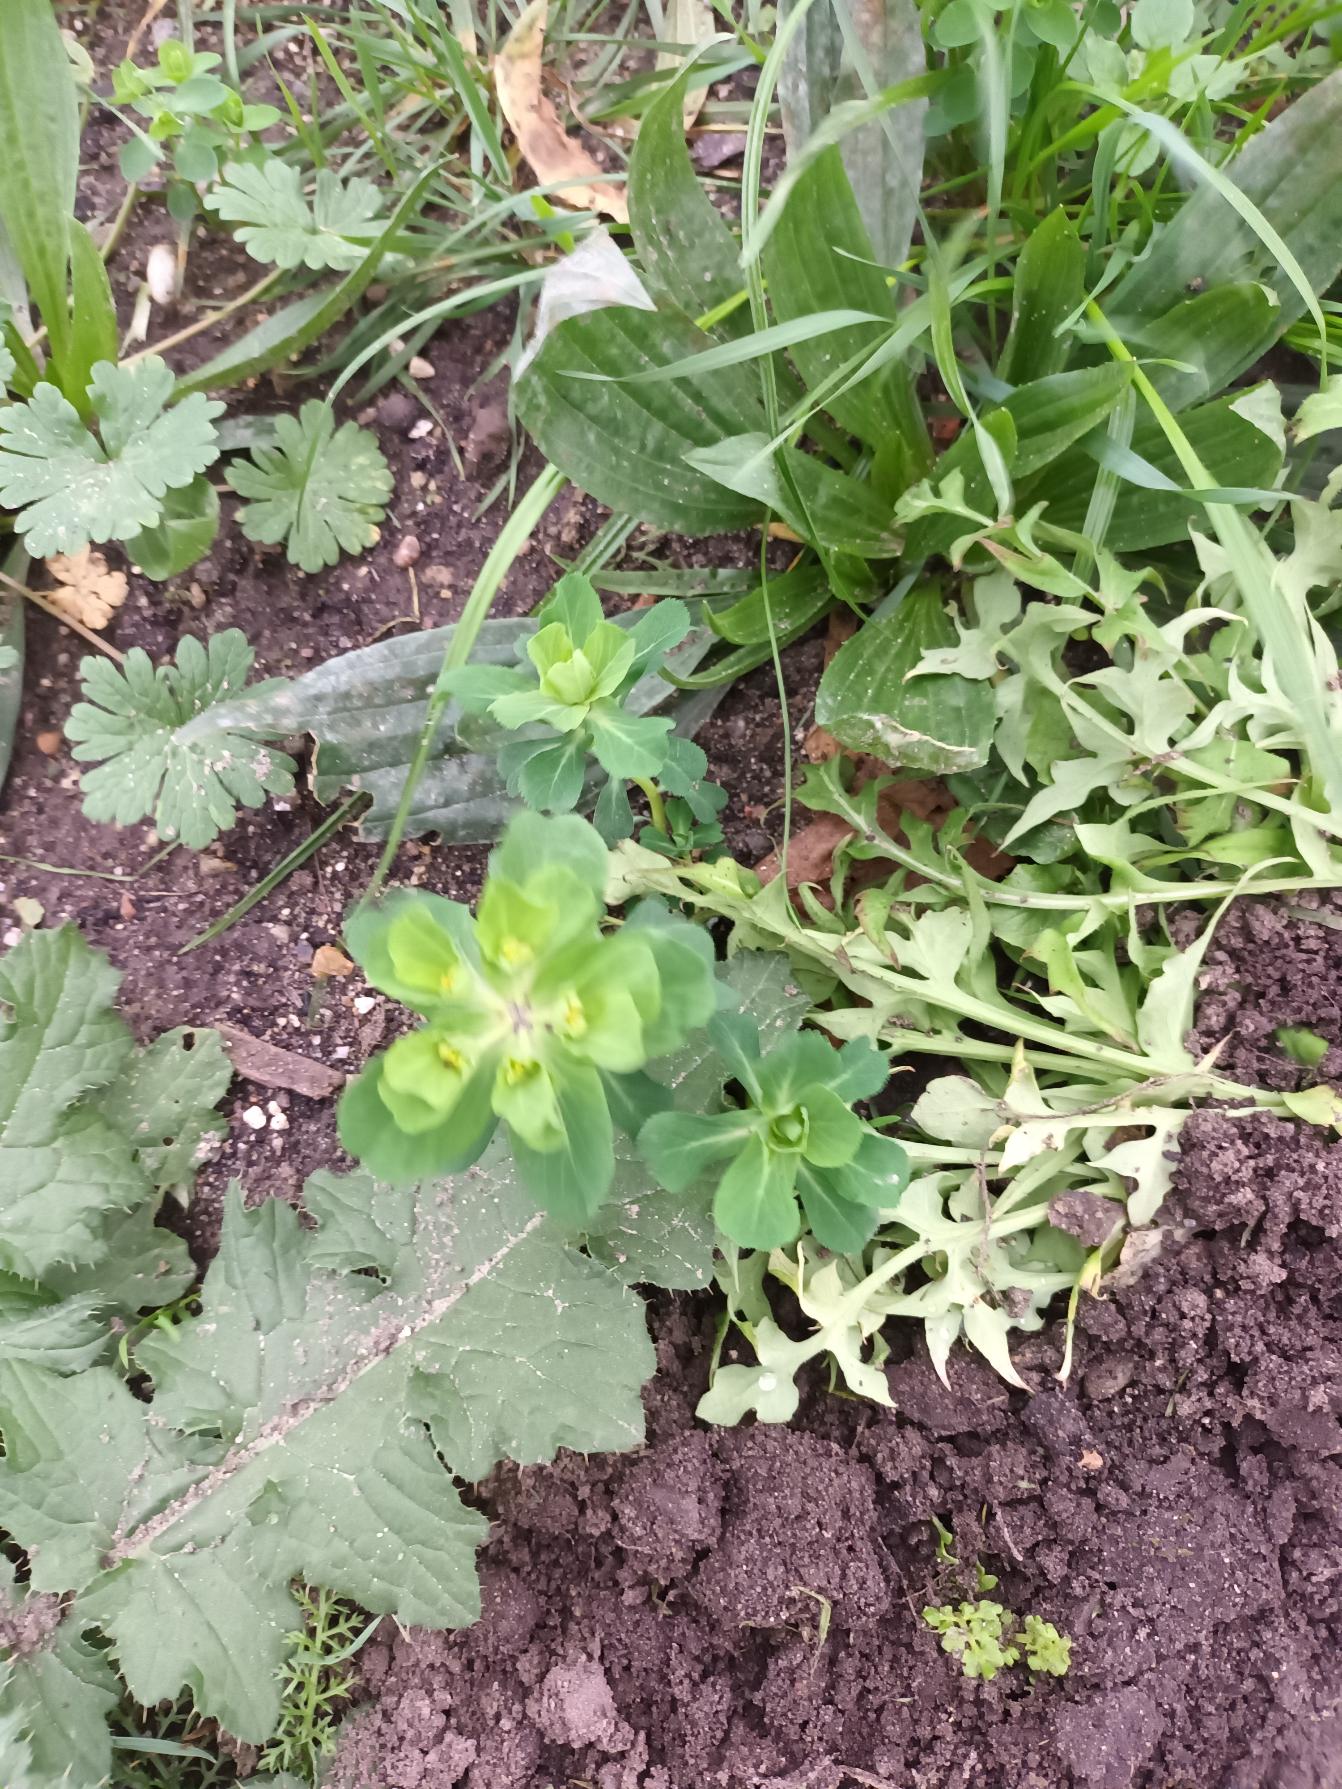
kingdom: Plantae
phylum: Tracheophyta
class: Magnoliopsida
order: Malpighiales
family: Euphorbiaceae
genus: Euphorbia
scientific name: Euphorbia helioscopia
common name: Skærm-vortemælk
